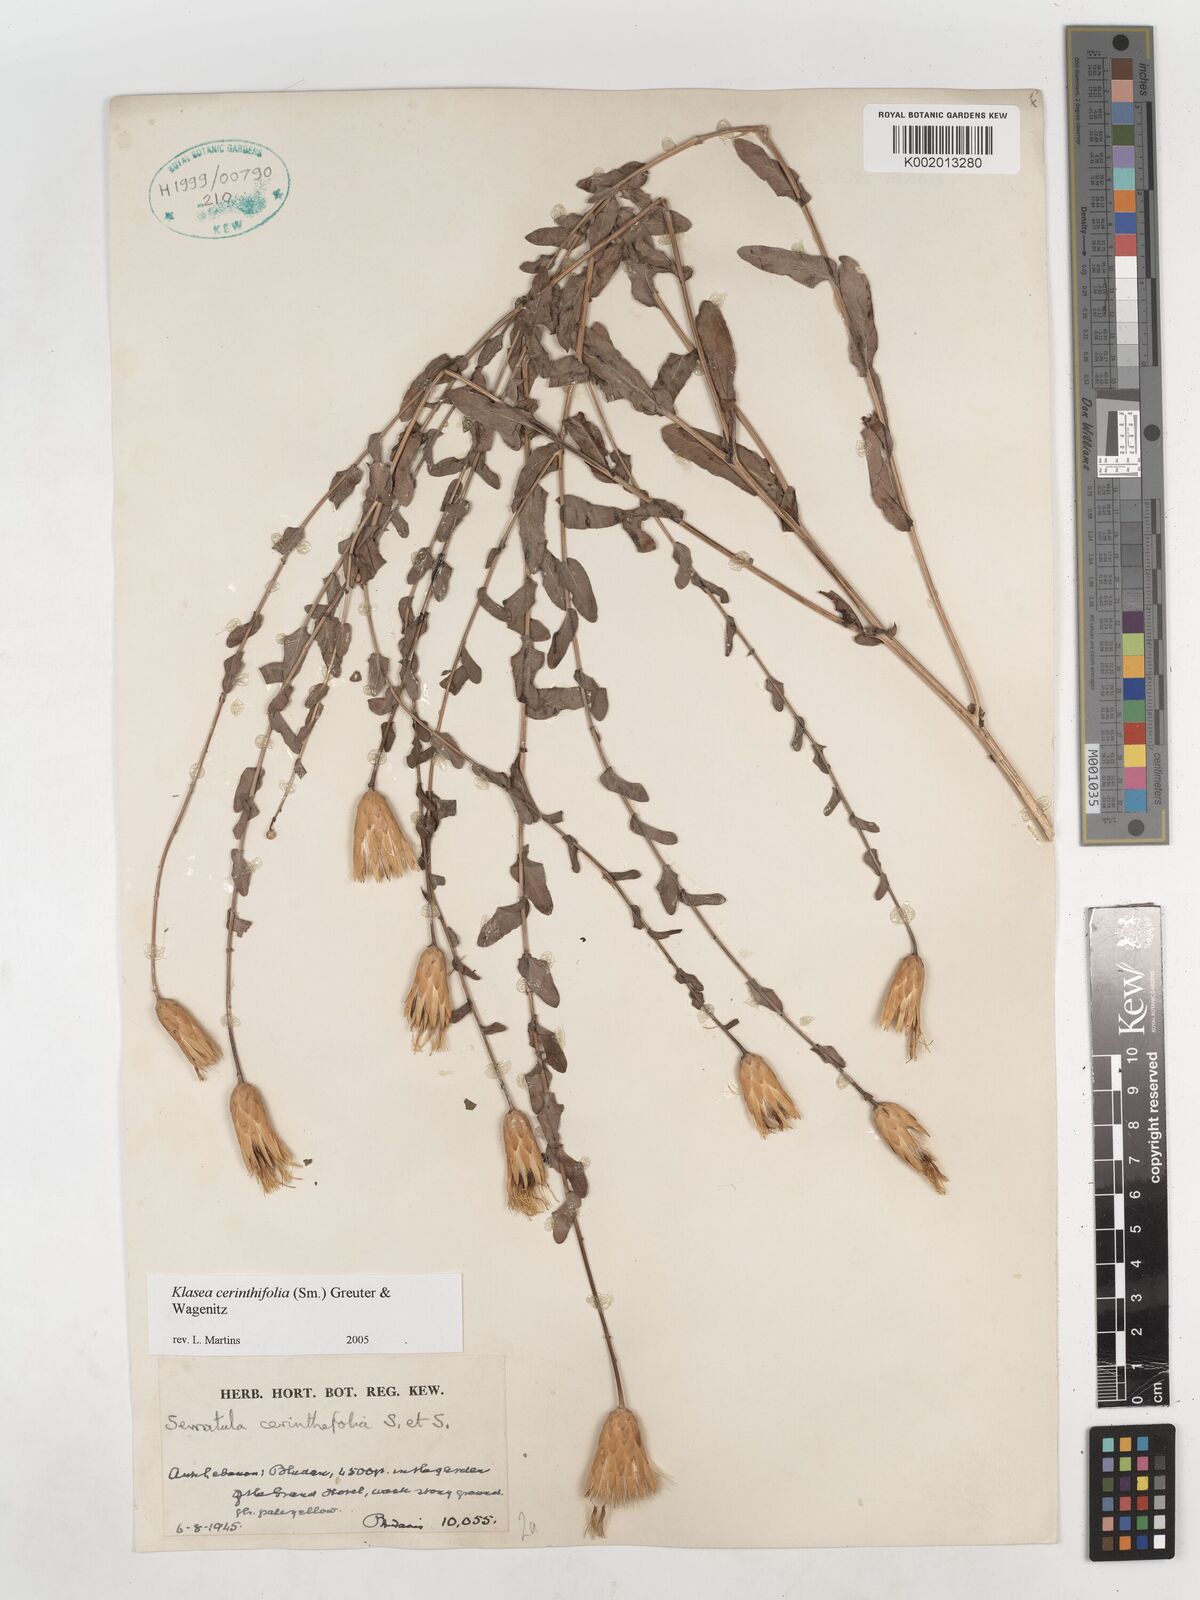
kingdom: Plantae
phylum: Tracheophyta
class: Magnoliopsida
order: Asterales
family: Asteraceae
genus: Klasea
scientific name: Klasea cerinthifolia
